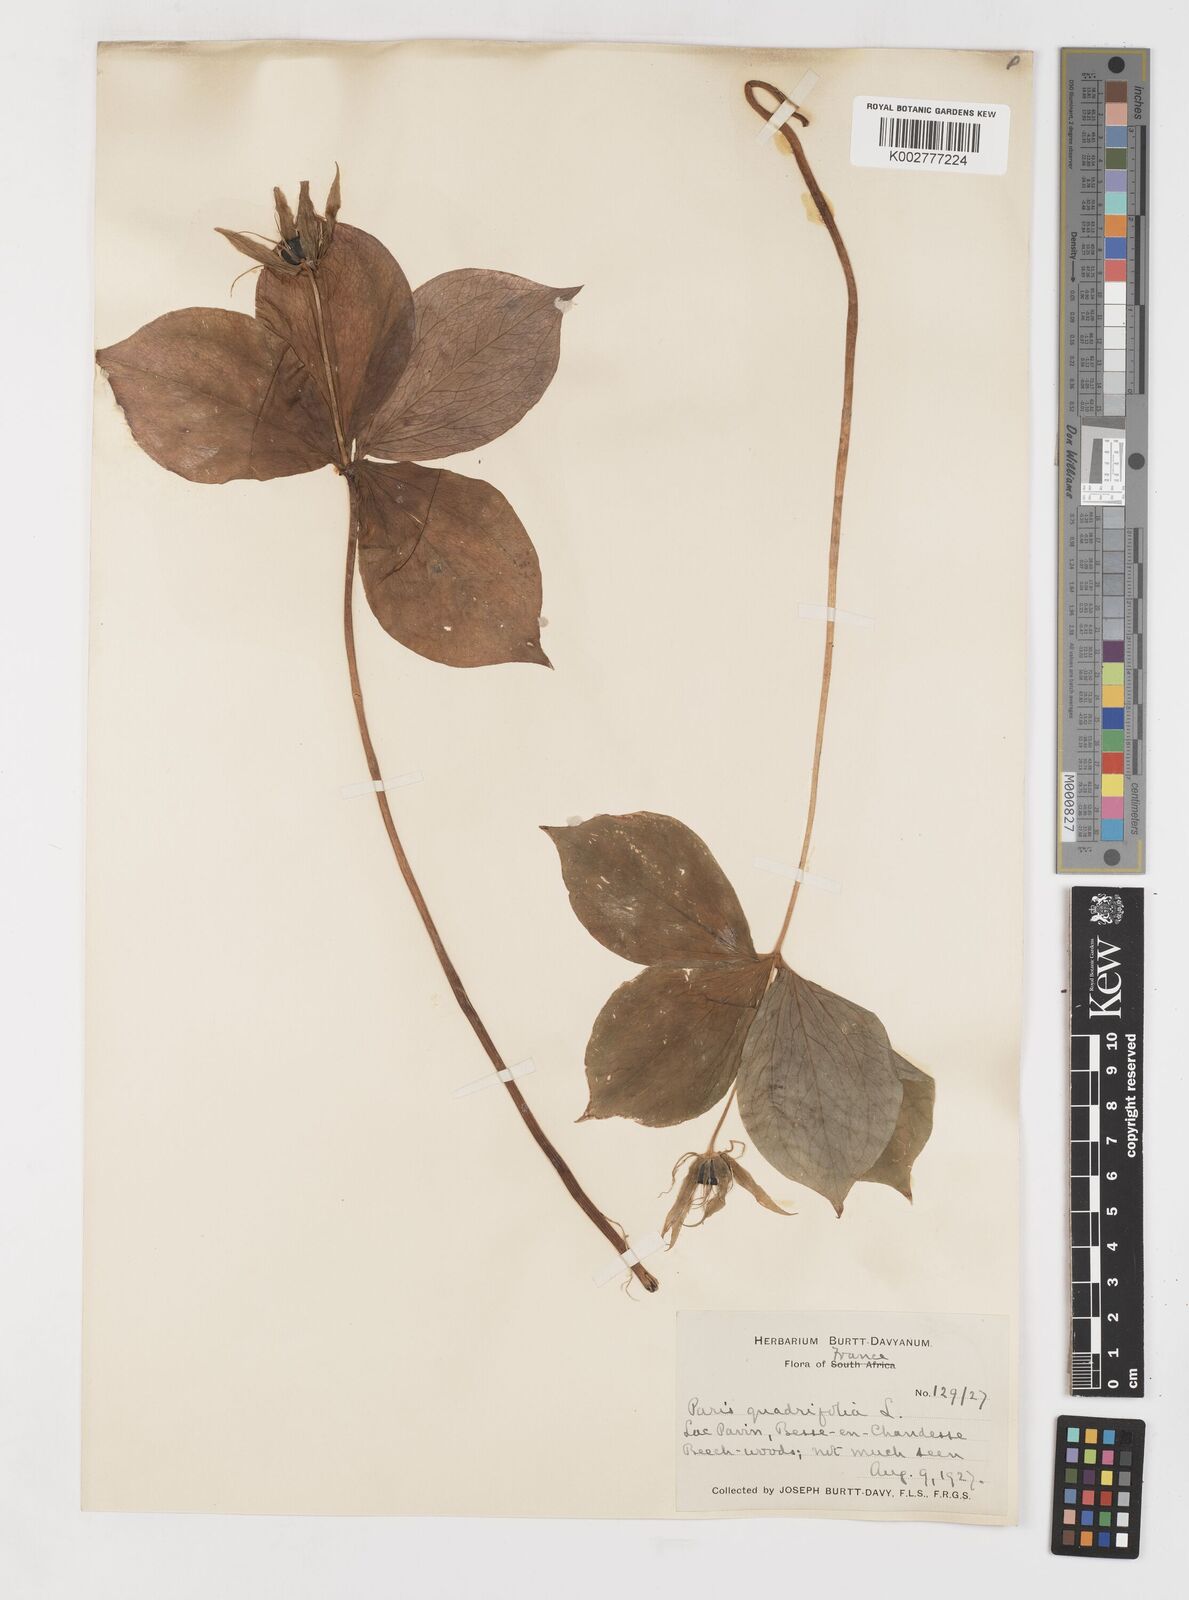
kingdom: Plantae
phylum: Tracheophyta
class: Liliopsida
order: Liliales
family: Melanthiaceae
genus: Paris
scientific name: Paris quadrifolia
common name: Herb-paris
